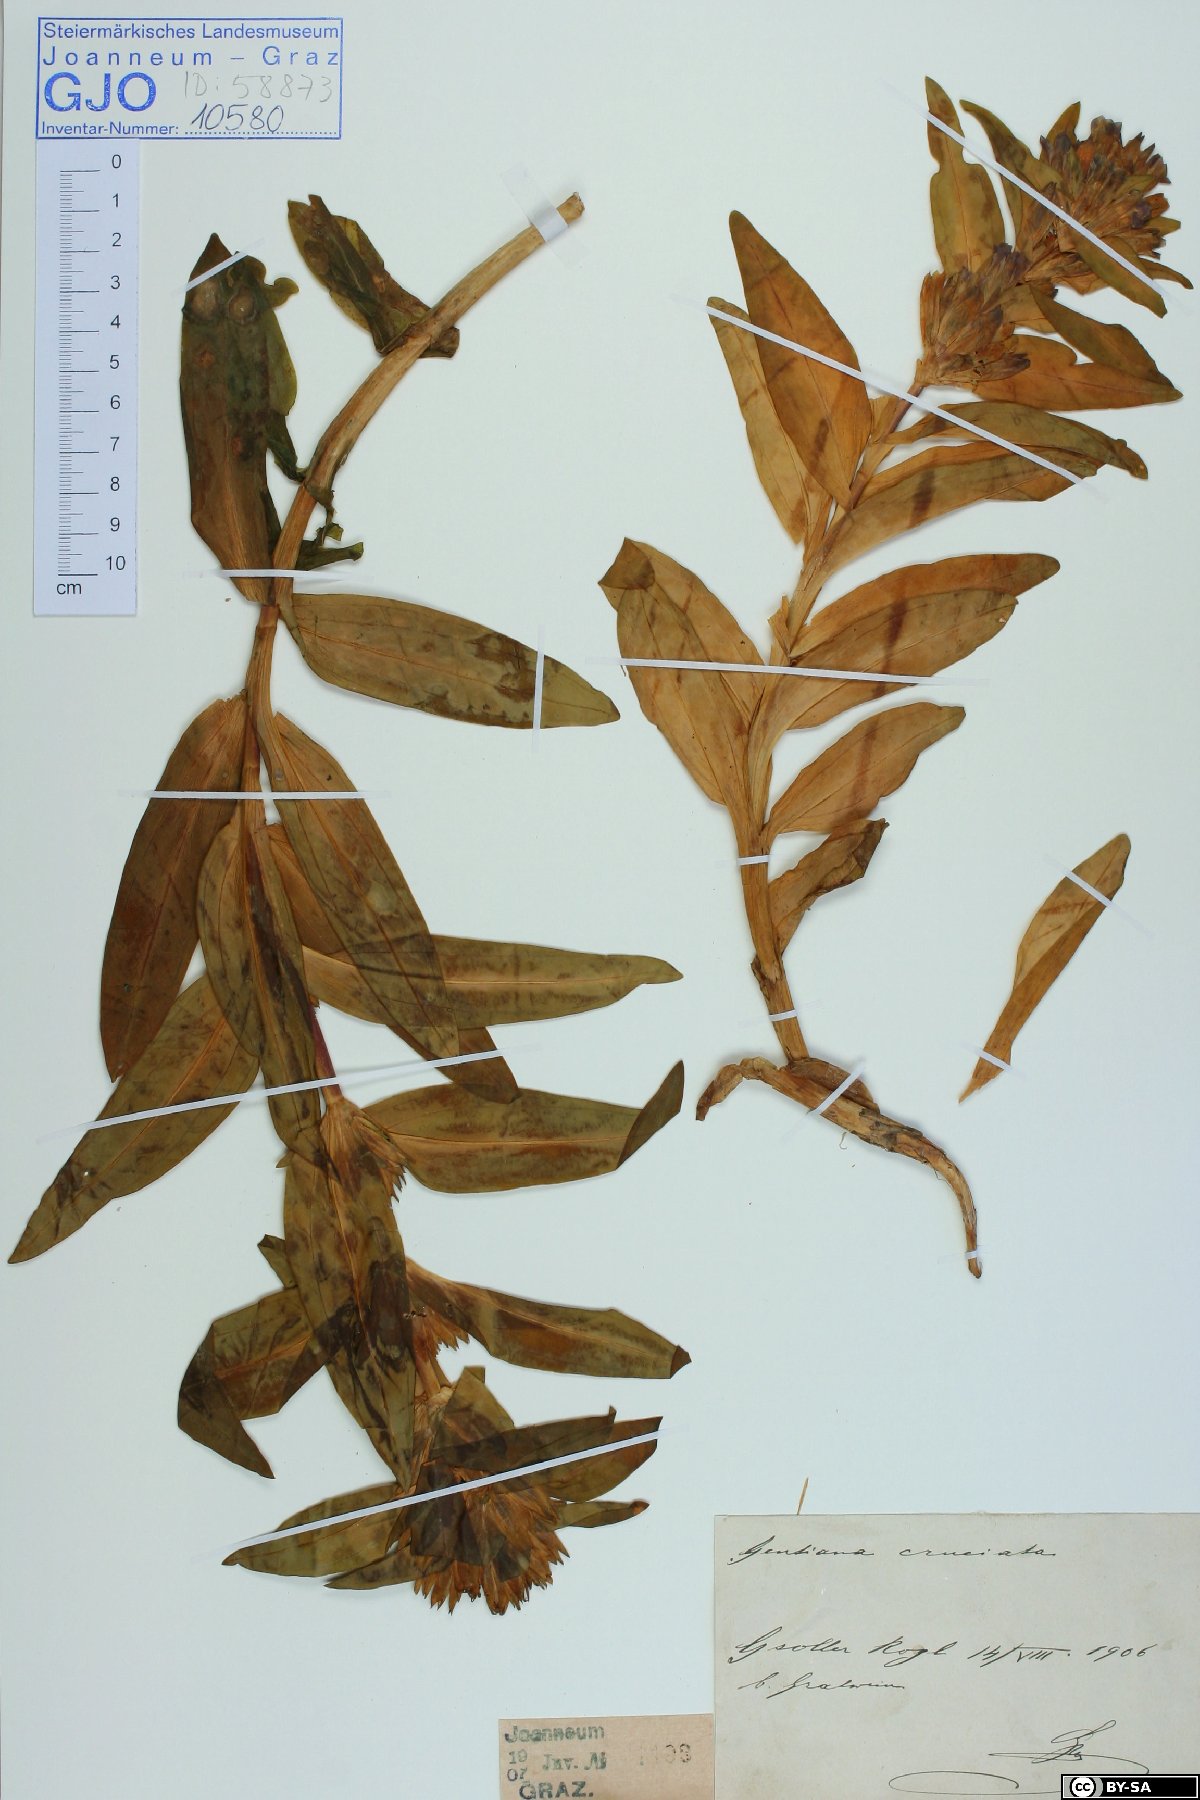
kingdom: Plantae
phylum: Tracheophyta
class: Magnoliopsida
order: Gentianales
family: Gentianaceae
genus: Gentiana
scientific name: Gentiana cruciata
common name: Cross gentian
